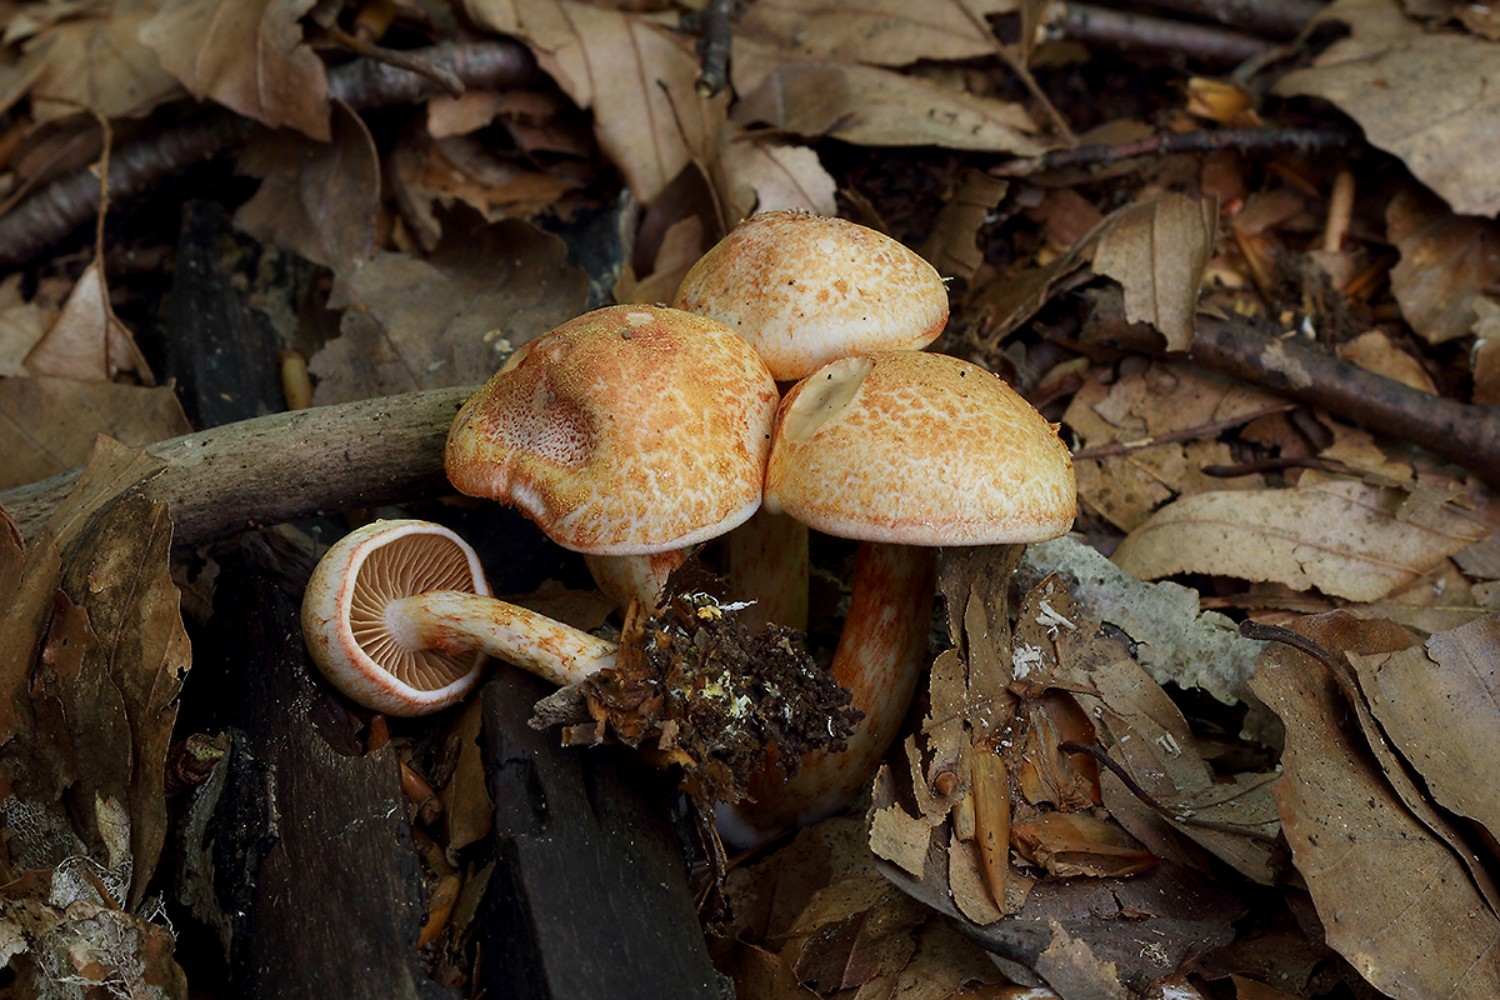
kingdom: Fungi
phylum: Basidiomycota
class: Agaricomycetes
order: Agaricales
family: Cortinariaceae
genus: Cortinarius
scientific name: Cortinarius bolaris
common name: cinnoberskællet slørhat
